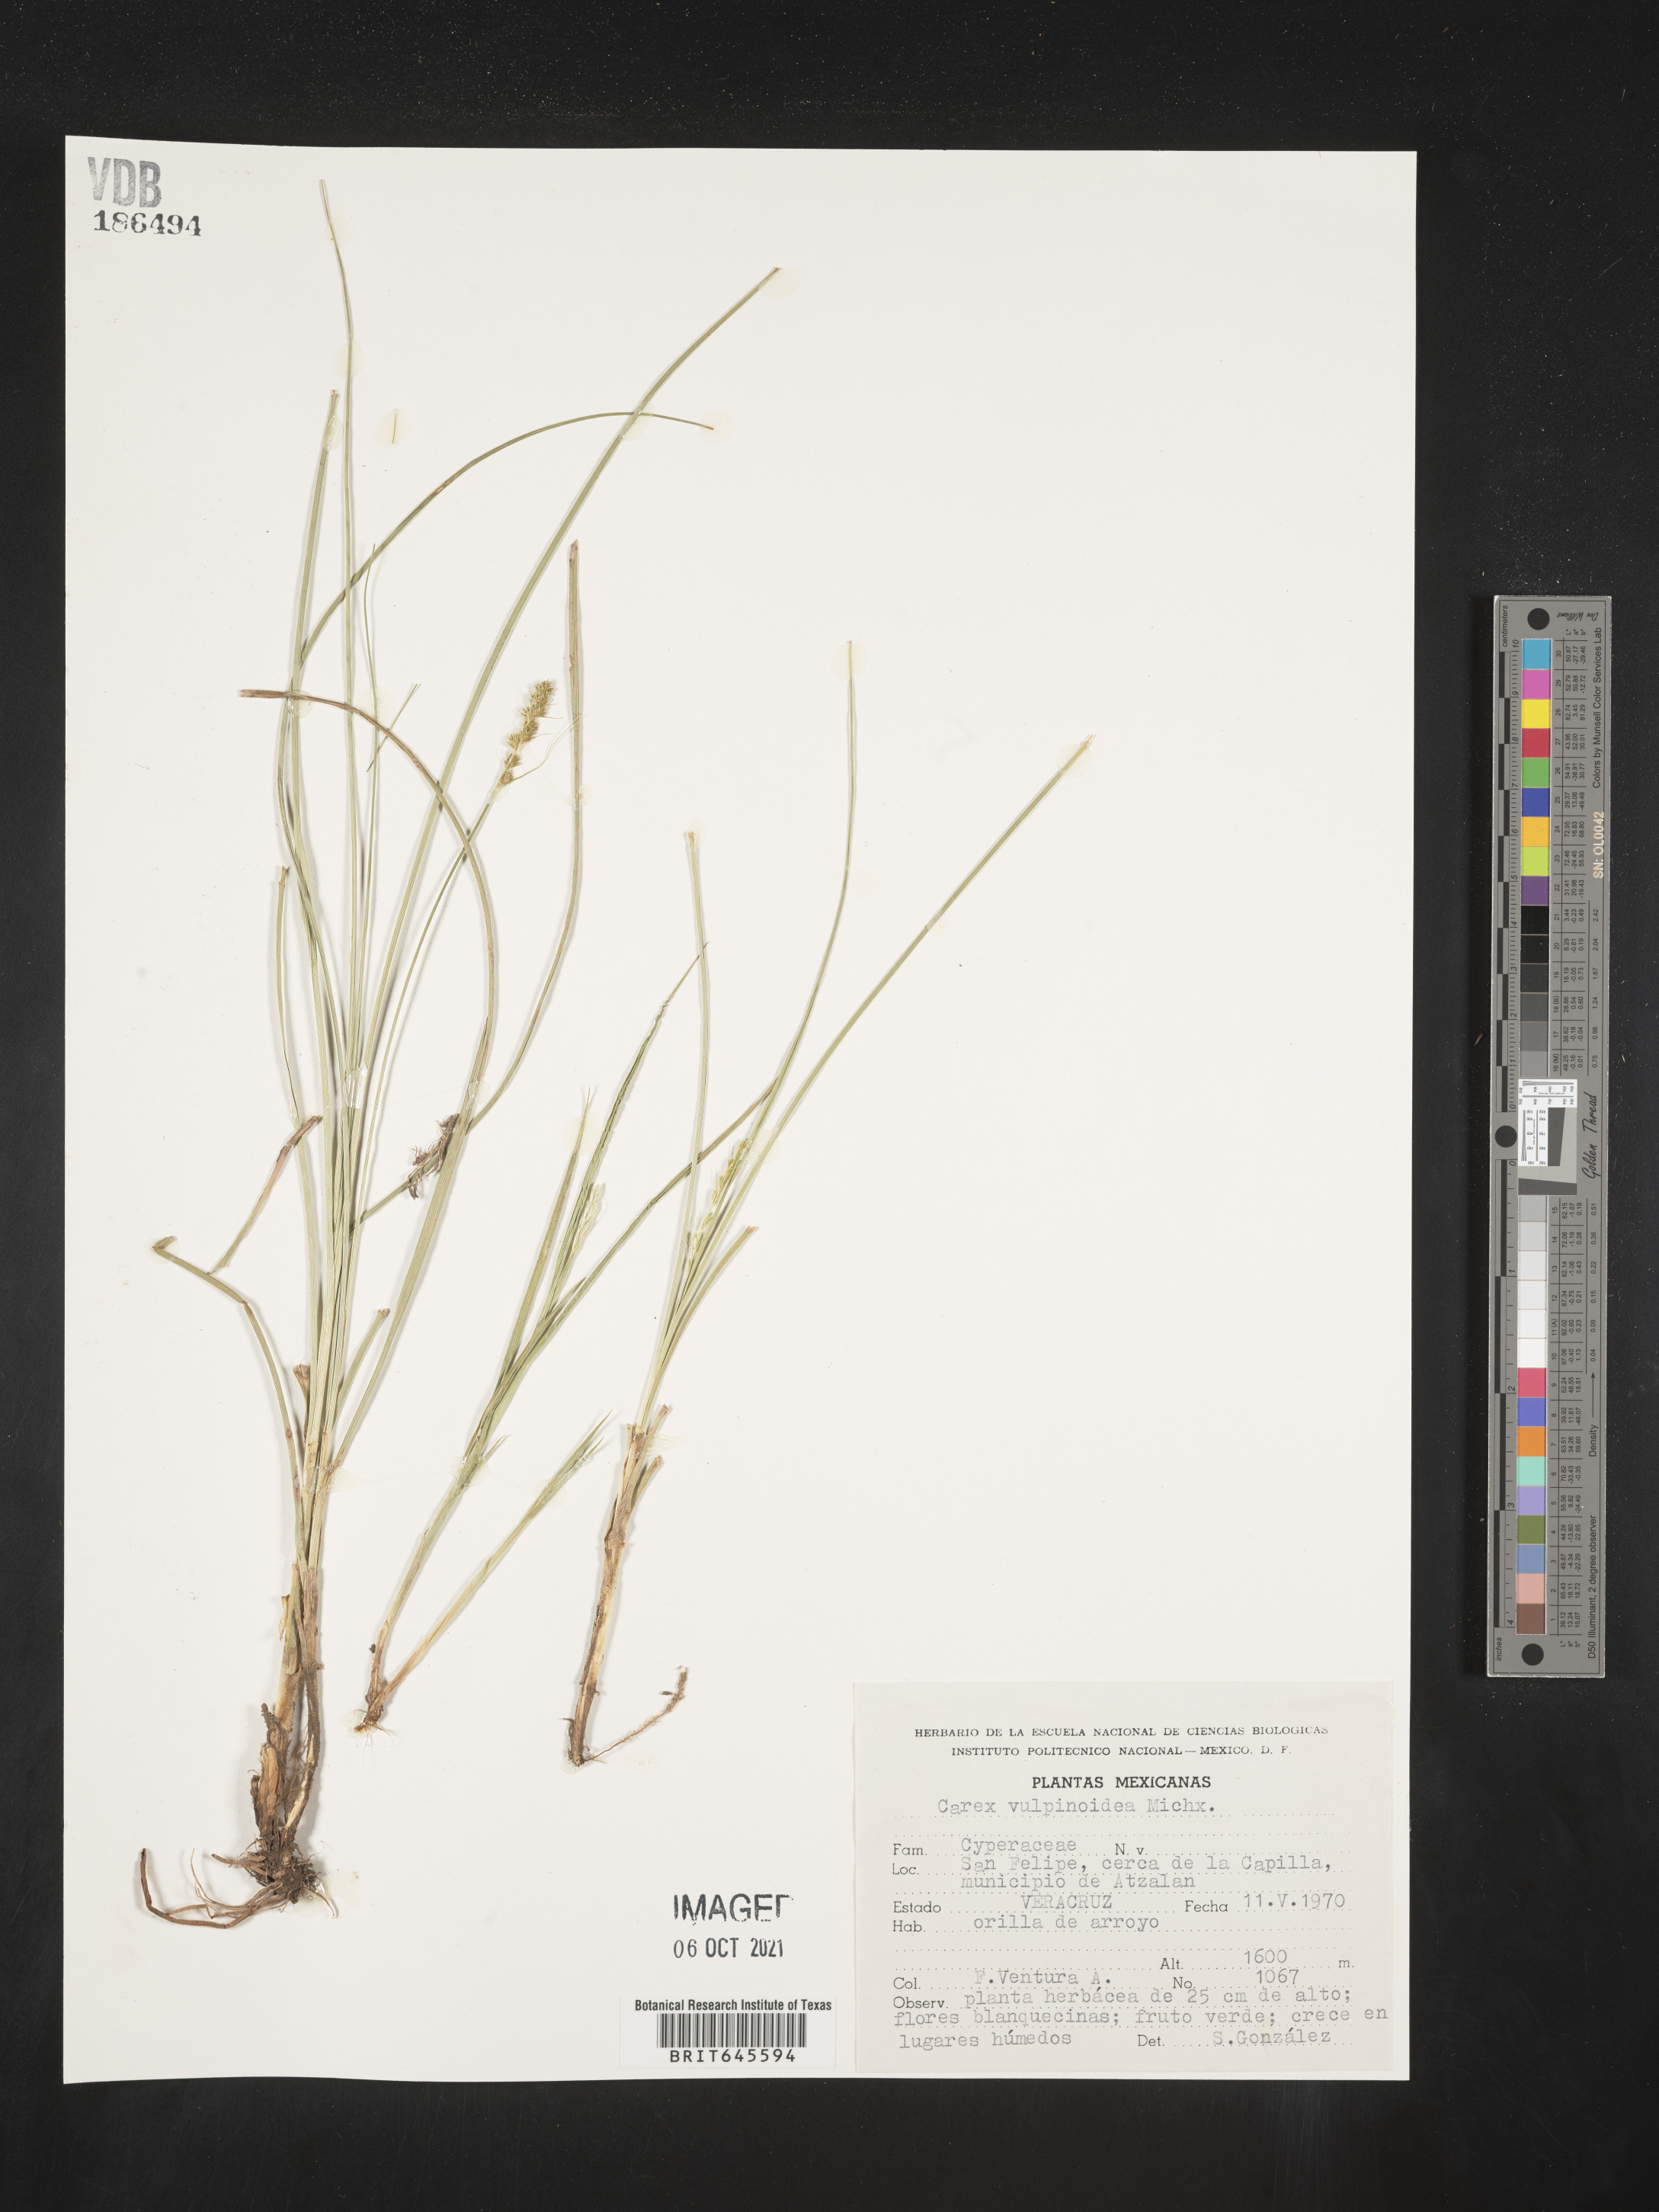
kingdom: Plantae
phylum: Tracheophyta
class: Liliopsida
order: Poales
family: Cyperaceae
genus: Carex
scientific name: Carex
